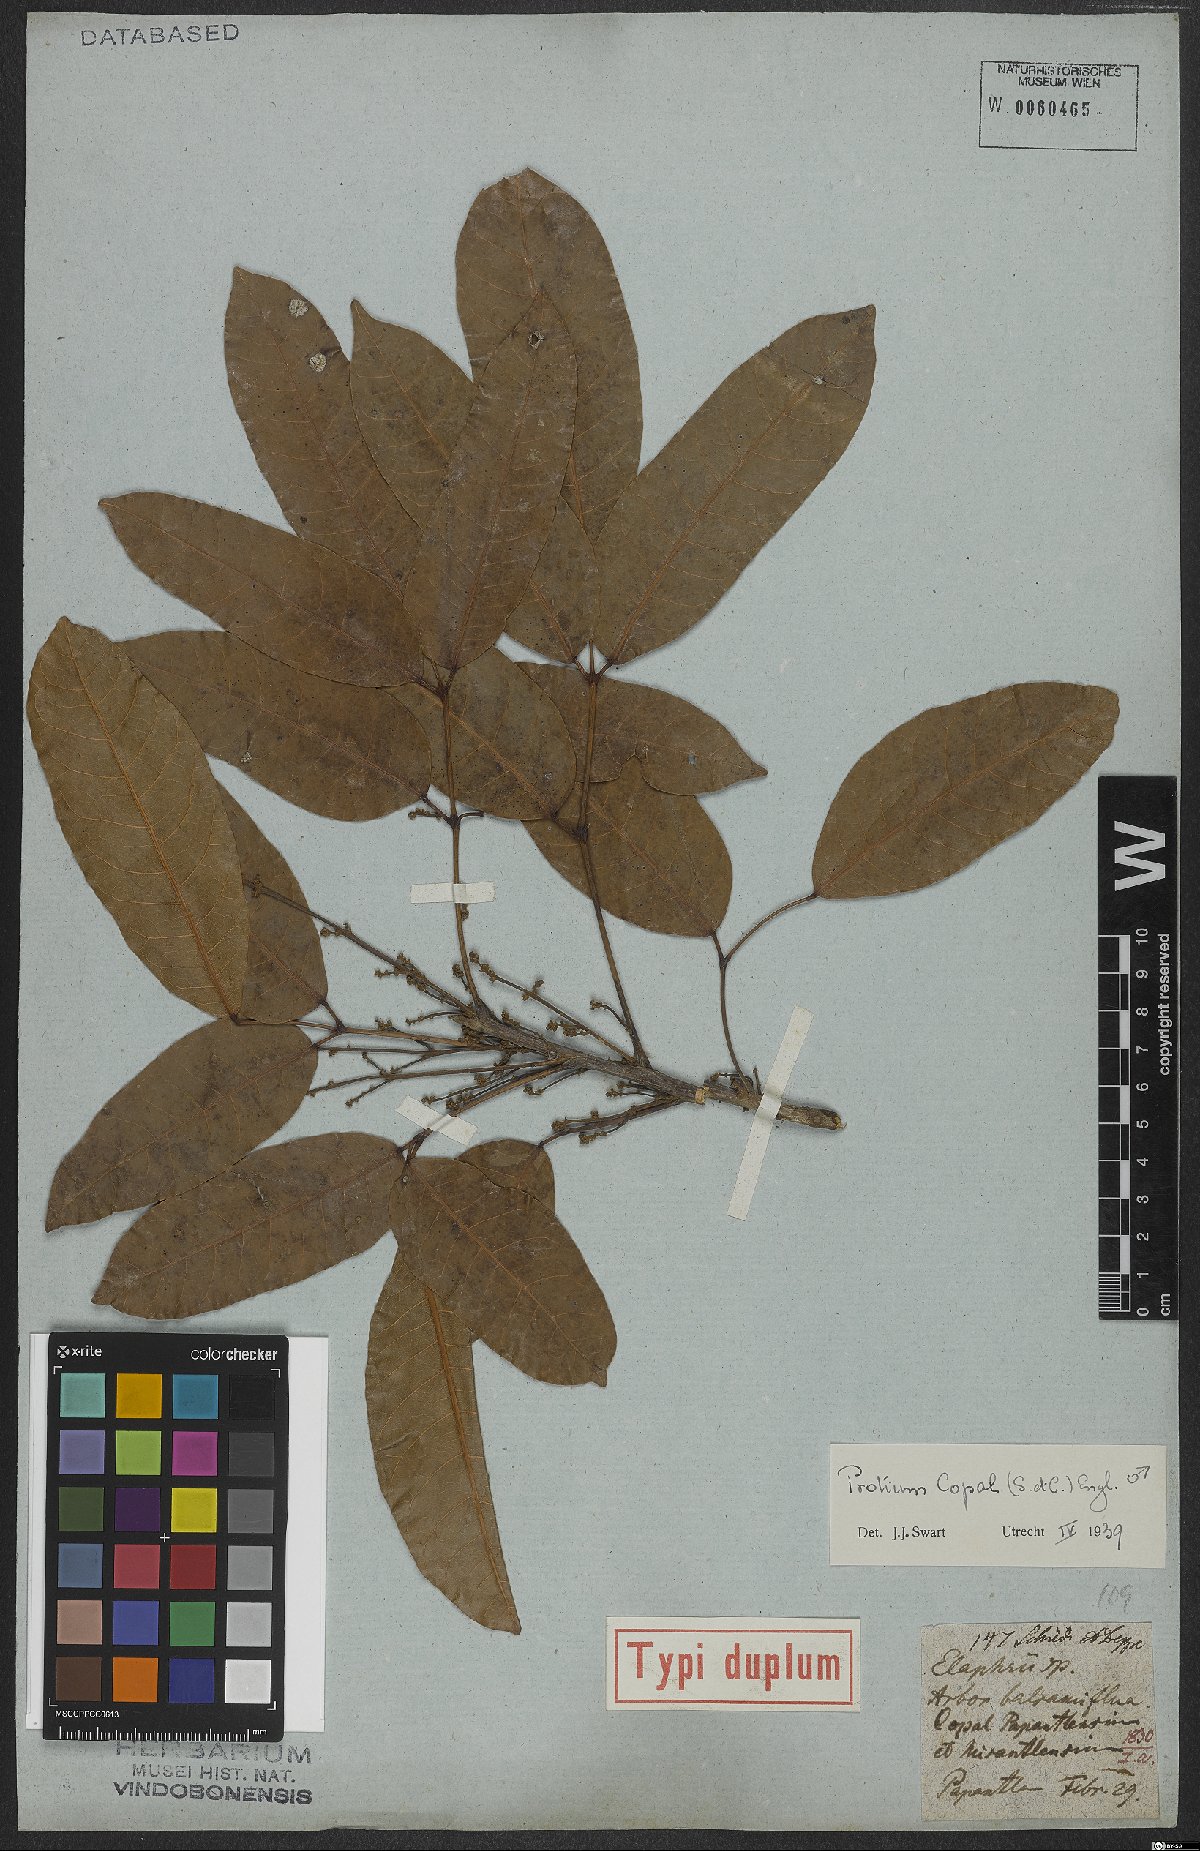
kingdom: Plantae
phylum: Tracheophyta
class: Magnoliopsida
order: Sapindales
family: Burseraceae
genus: Protium
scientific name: Protium copal
